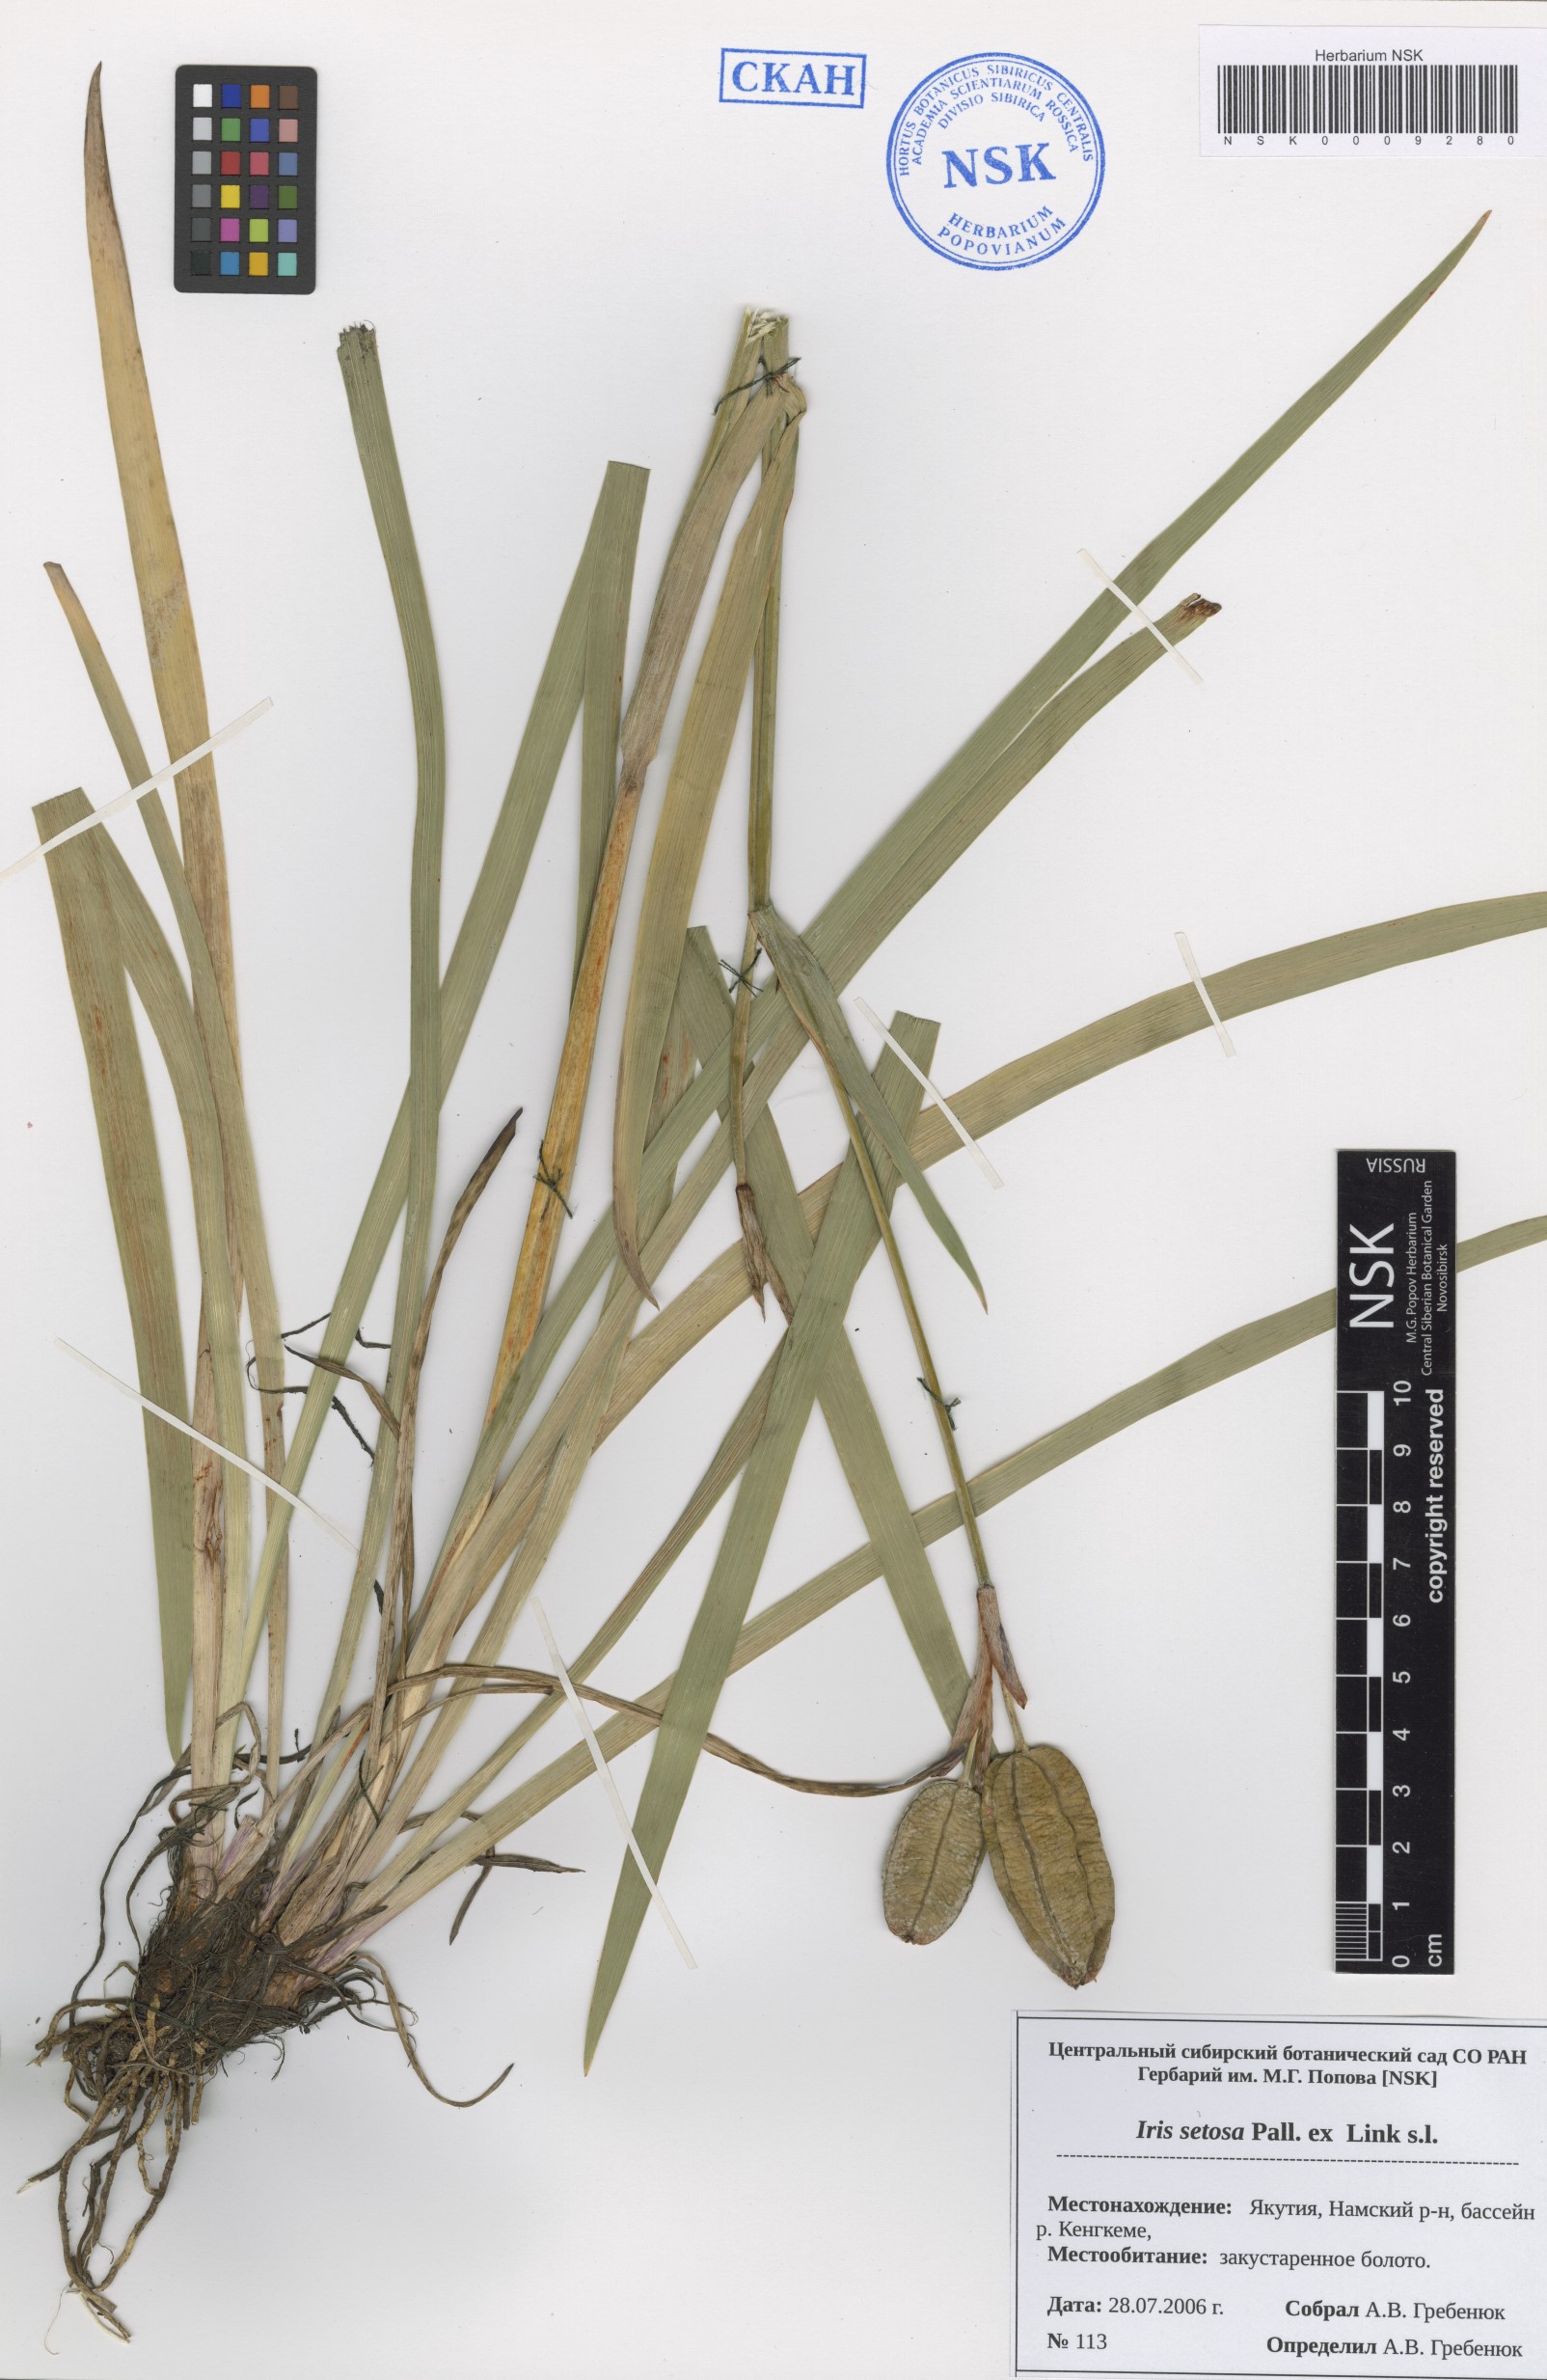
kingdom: Plantae
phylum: Tracheophyta
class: Liliopsida
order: Asparagales
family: Iridaceae
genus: Iris
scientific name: Iris setosa
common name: Arctic blue flag
